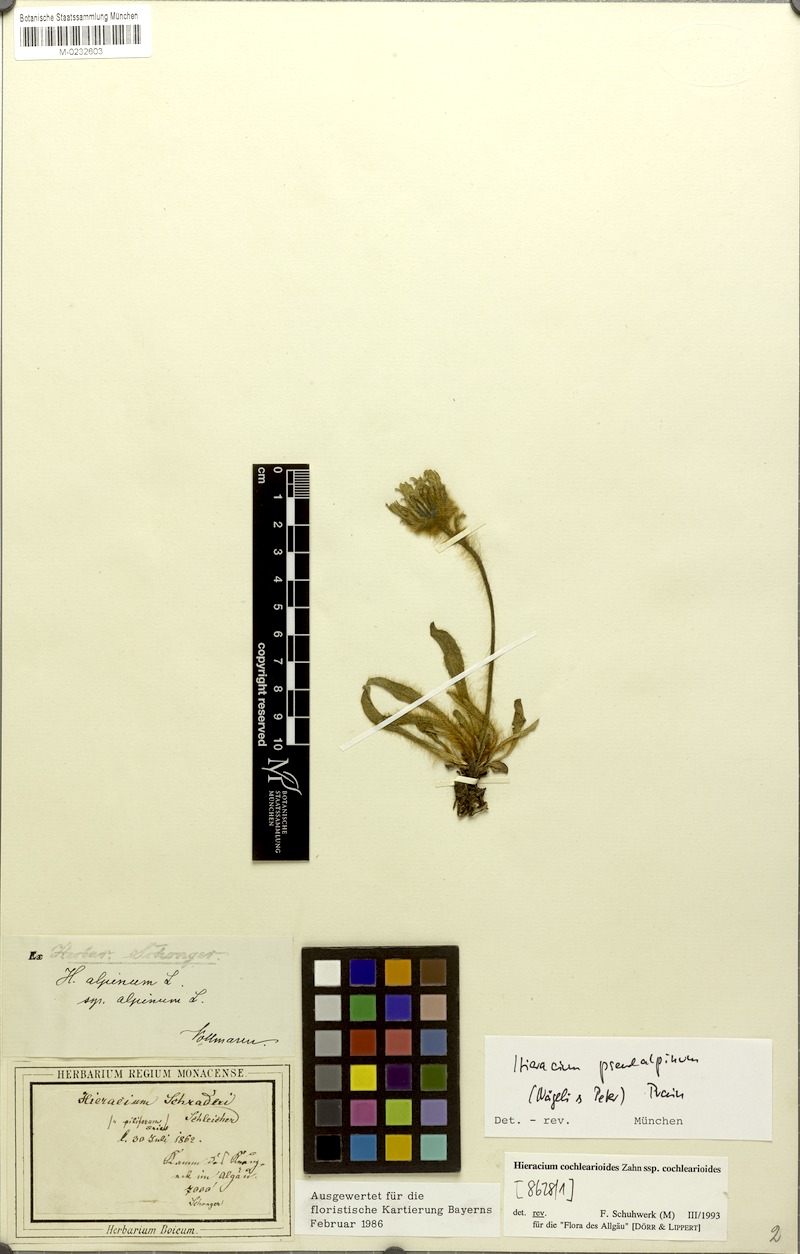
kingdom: Plantae
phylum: Tracheophyta
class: Magnoliopsida
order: Asterales
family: Asteraceae
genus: Hieracium
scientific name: Hieracium pseudalpinum
